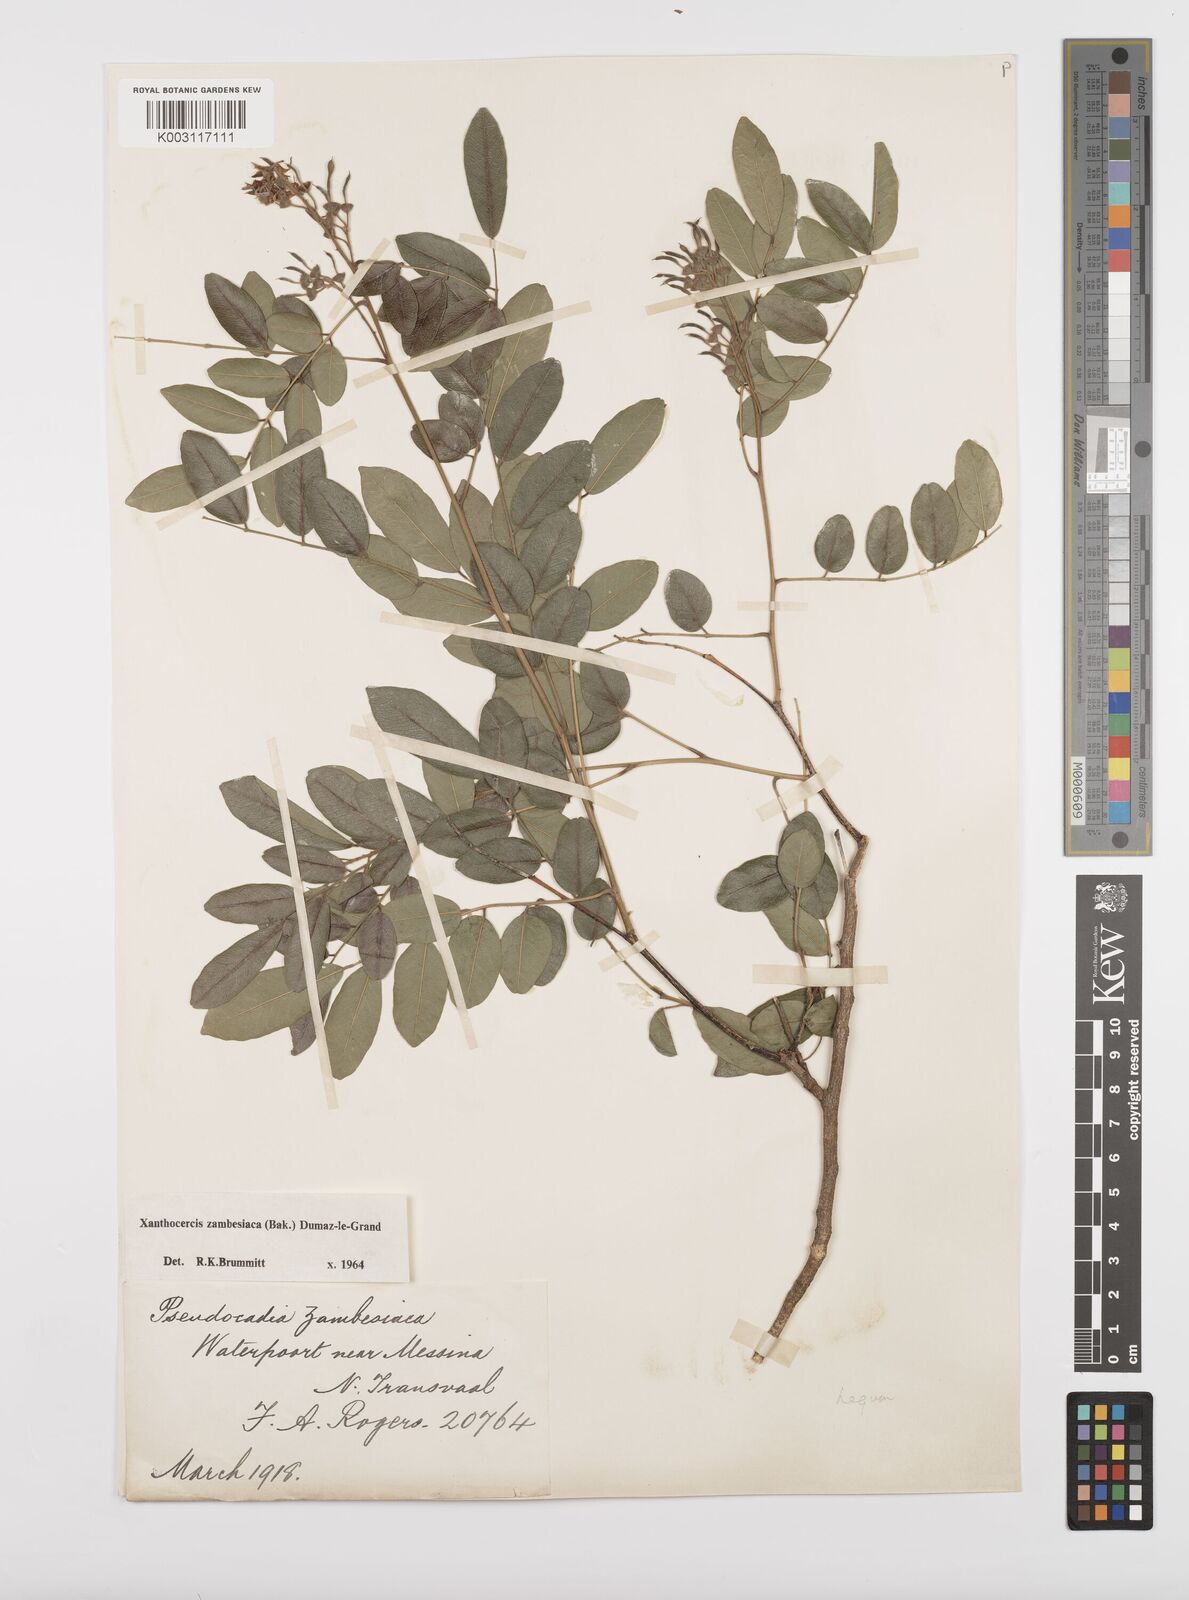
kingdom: Plantae
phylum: Tracheophyta
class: Magnoliopsida
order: Fabales
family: Fabaceae
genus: Xanthocercis
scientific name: Xanthocercis zambesiaca
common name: Nyala-tree
